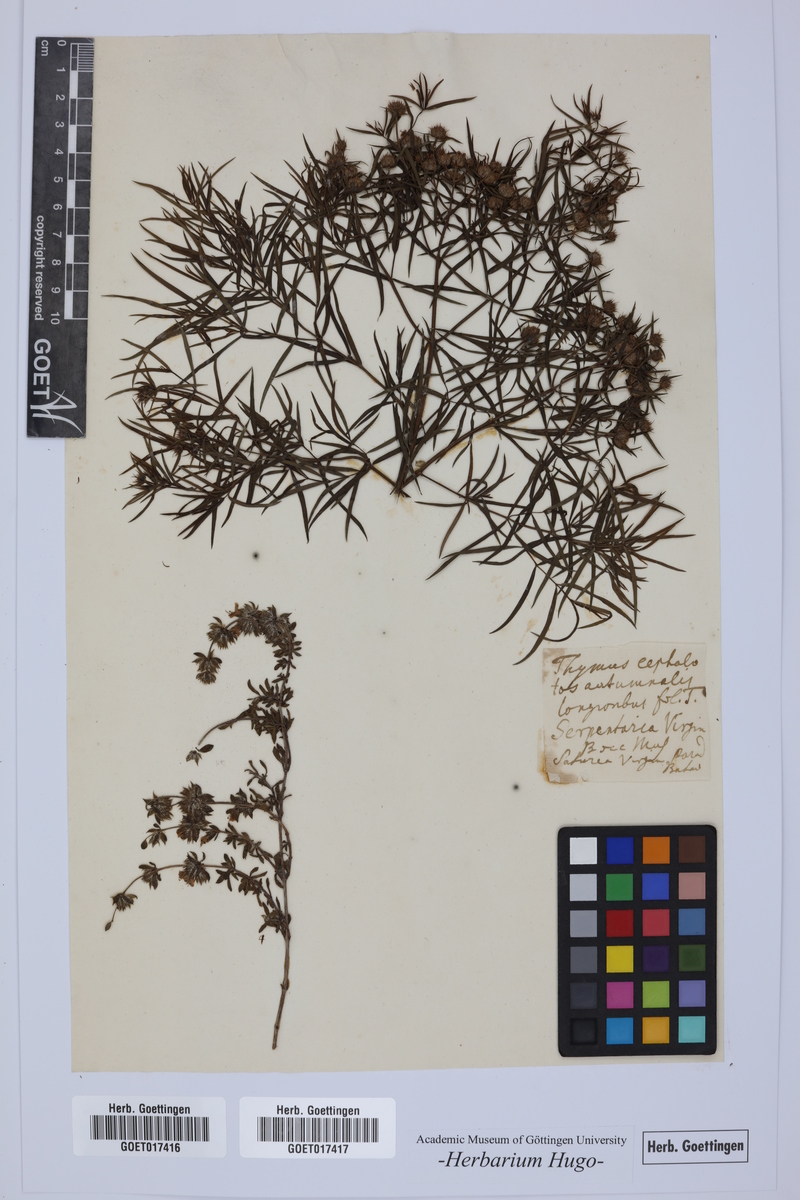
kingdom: Plantae
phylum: Tracheophyta
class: Magnoliopsida
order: Lamiales
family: Lamiaceae
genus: Pycnanthemum
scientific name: Pycnanthemum virginianum
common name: Virginia mountain-mint
